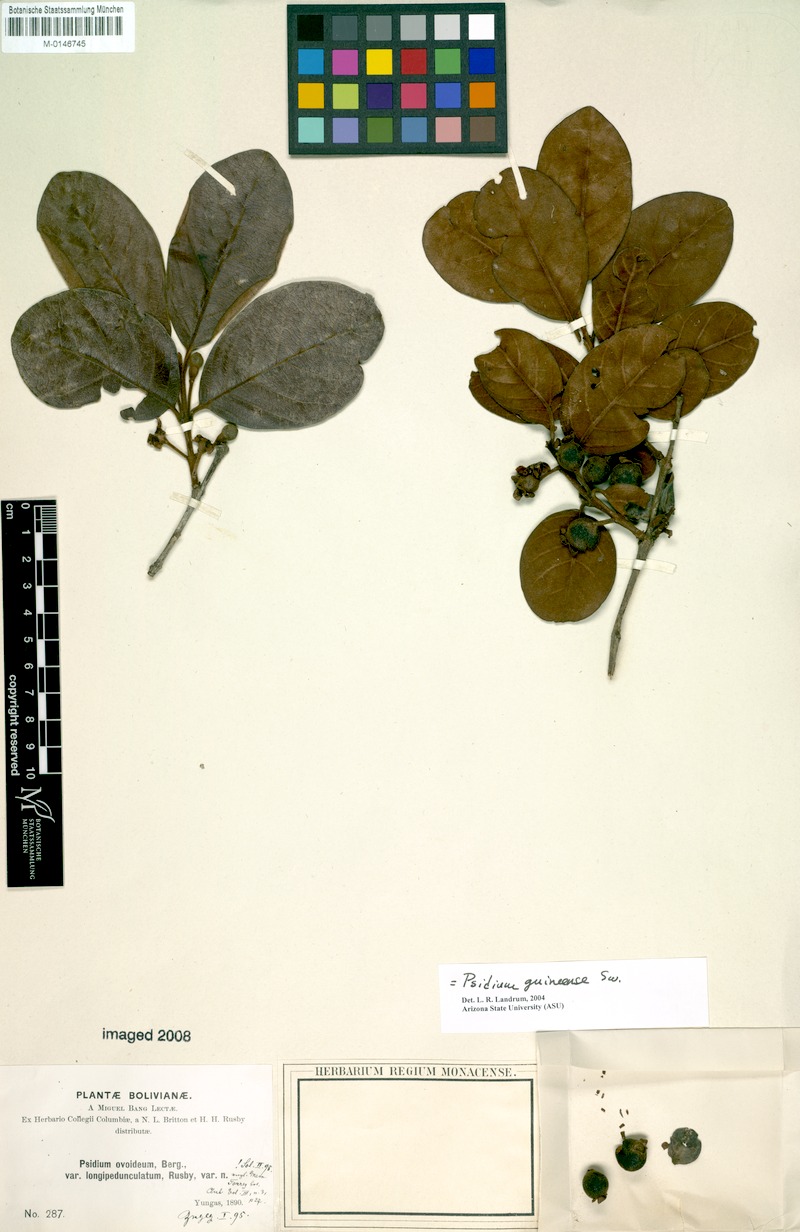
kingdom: Plantae
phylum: Tracheophyta
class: Magnoliopsida
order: Myrtales
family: Myrtaceae
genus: Psidium
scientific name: Psidium guineense
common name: Brazilian guava
